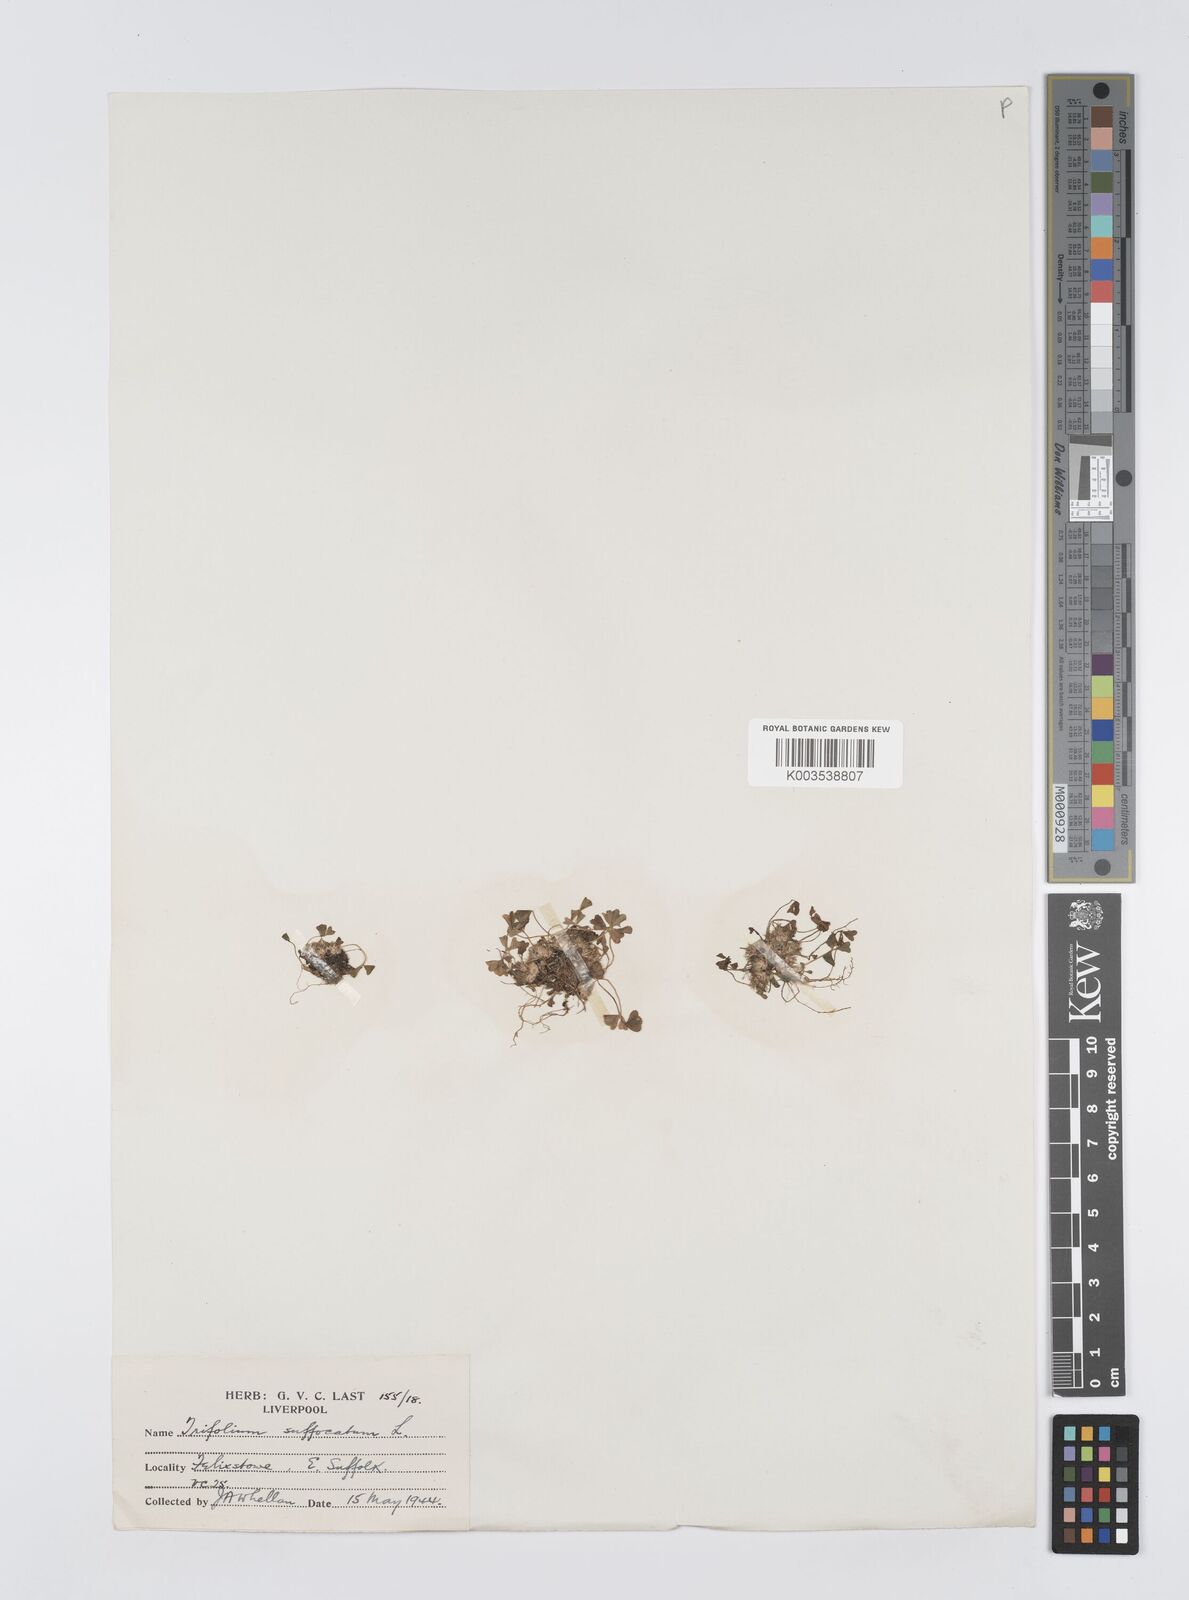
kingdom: Plantae
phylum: Tracheophyta
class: Magnoliopsida
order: Fabales
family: Fabaceae
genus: Trifolium
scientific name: Trifolium suffocatum
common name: Suffocated clover
